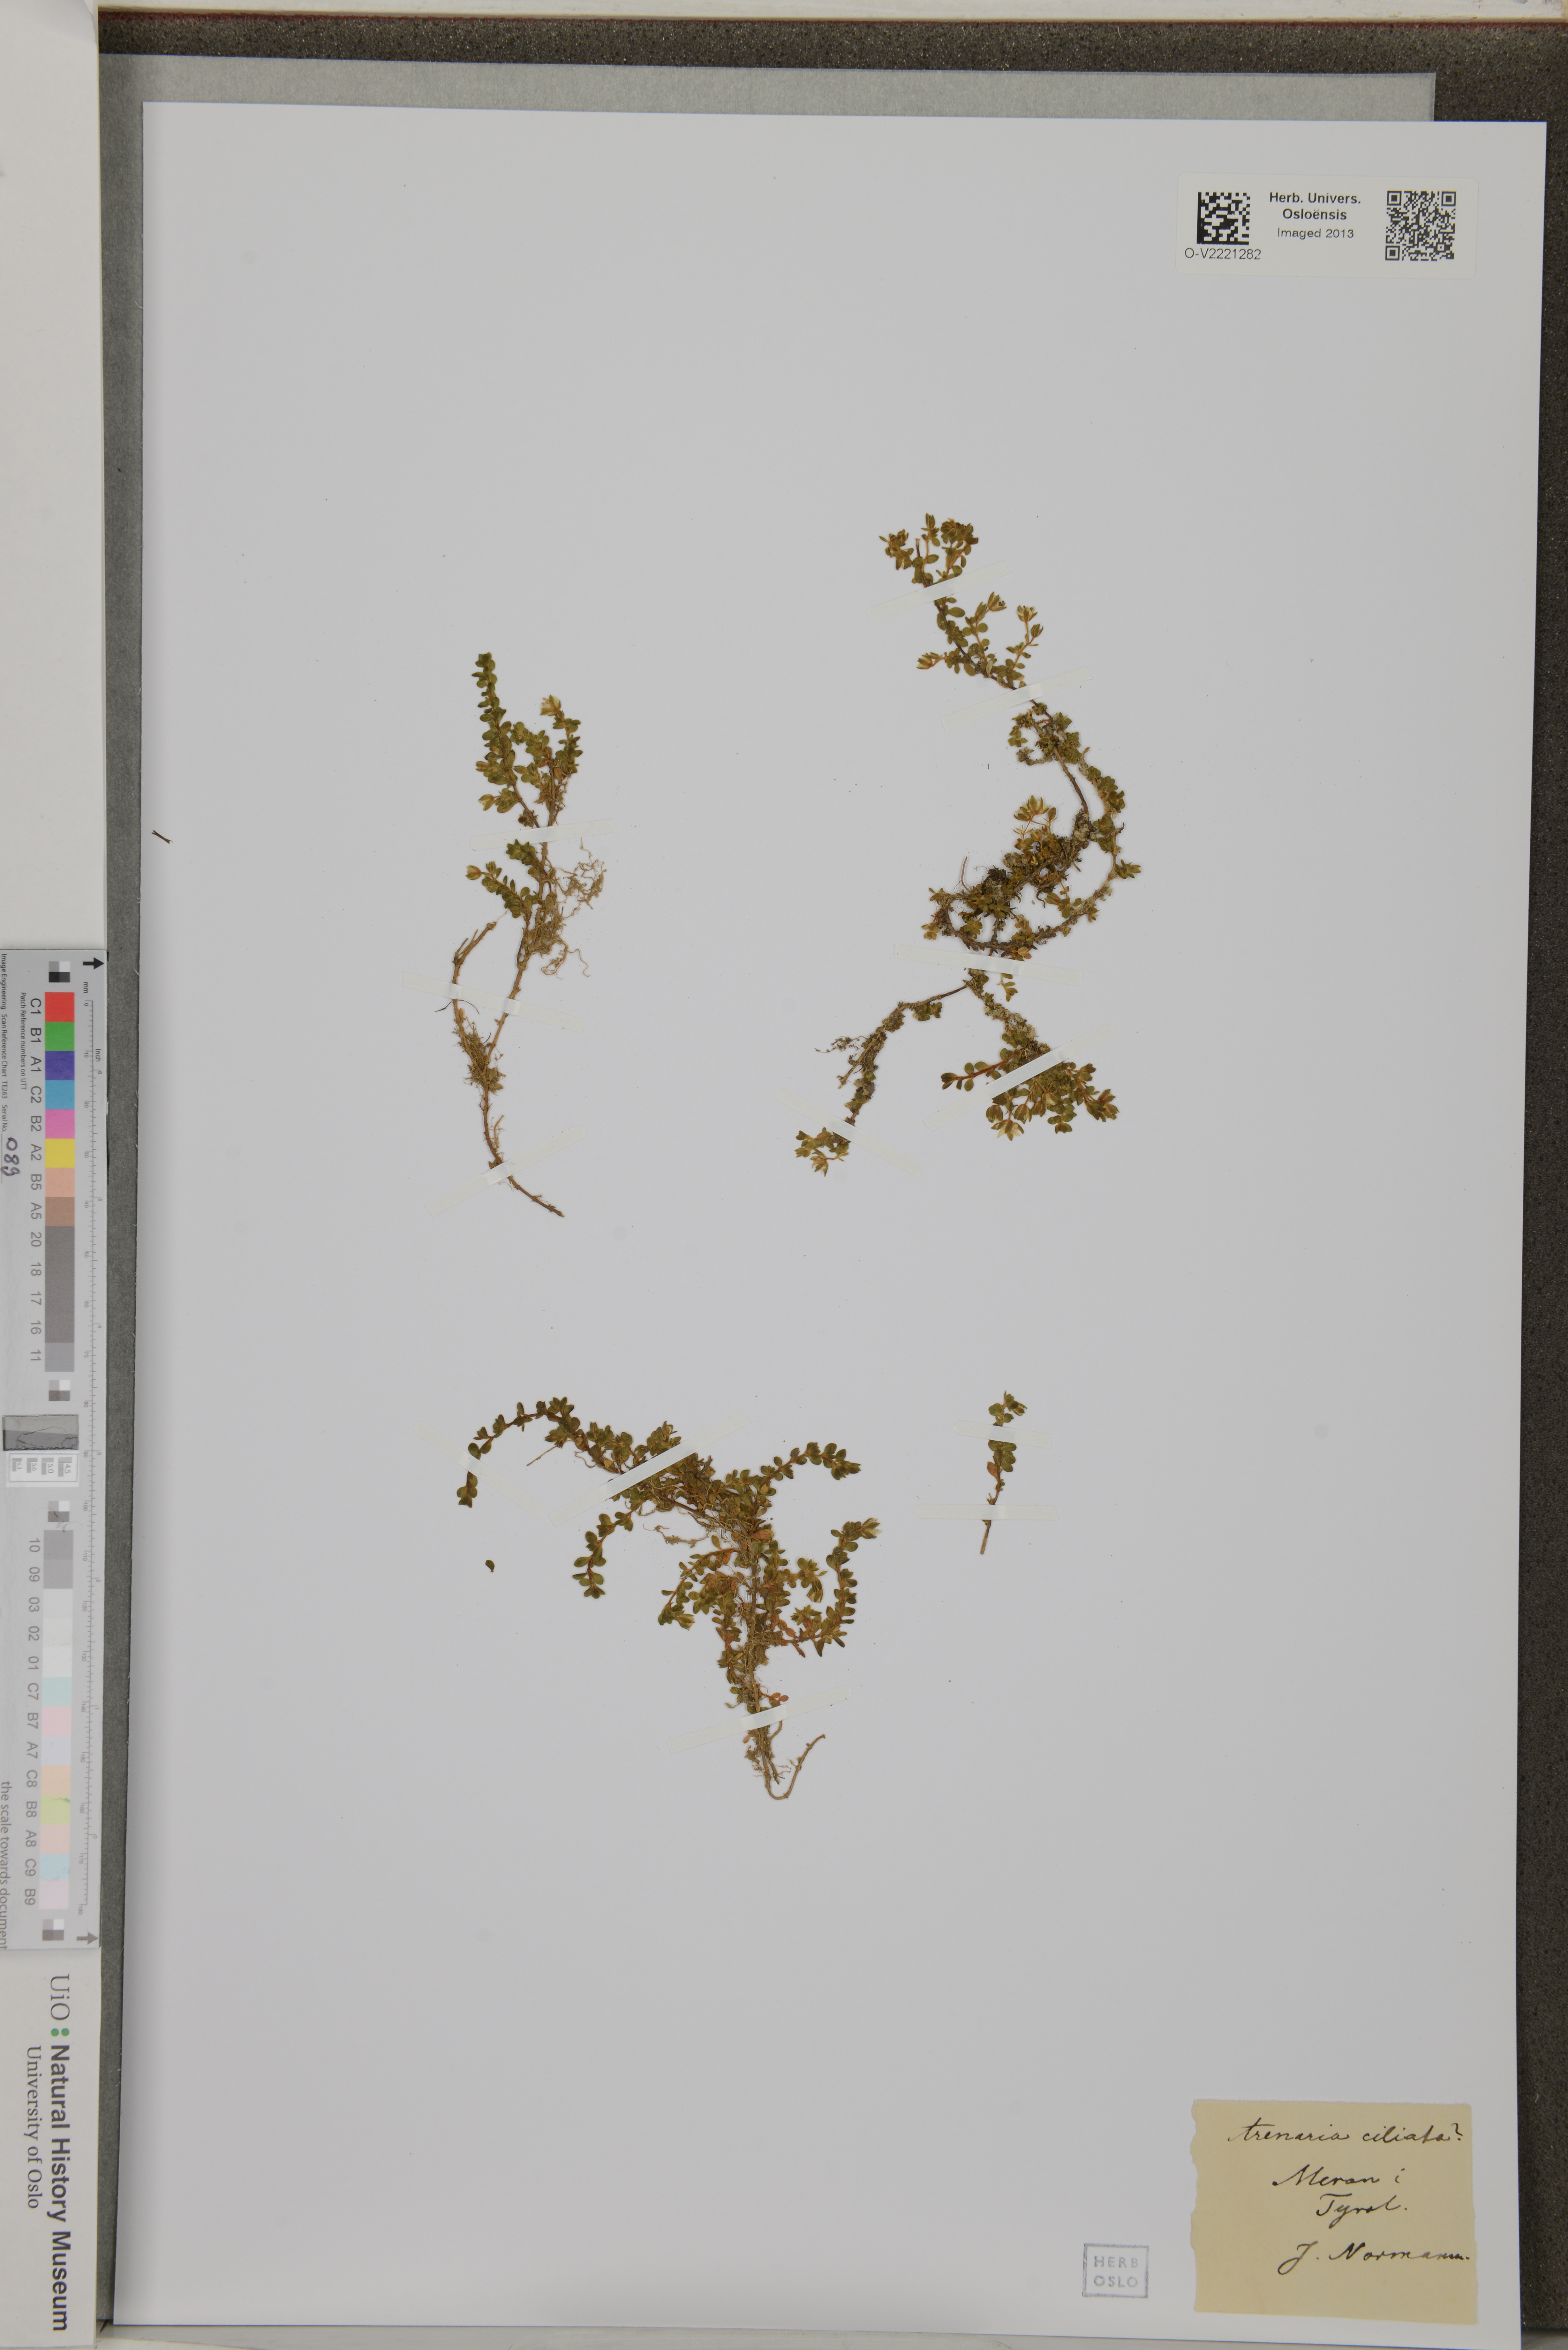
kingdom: Plantae
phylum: Tracheophyta
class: Magnoliopsida
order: Caryophyllales
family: Caryophyllaceae
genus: Arenaria
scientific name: Arenaria ciliata
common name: Fringed sandwort
